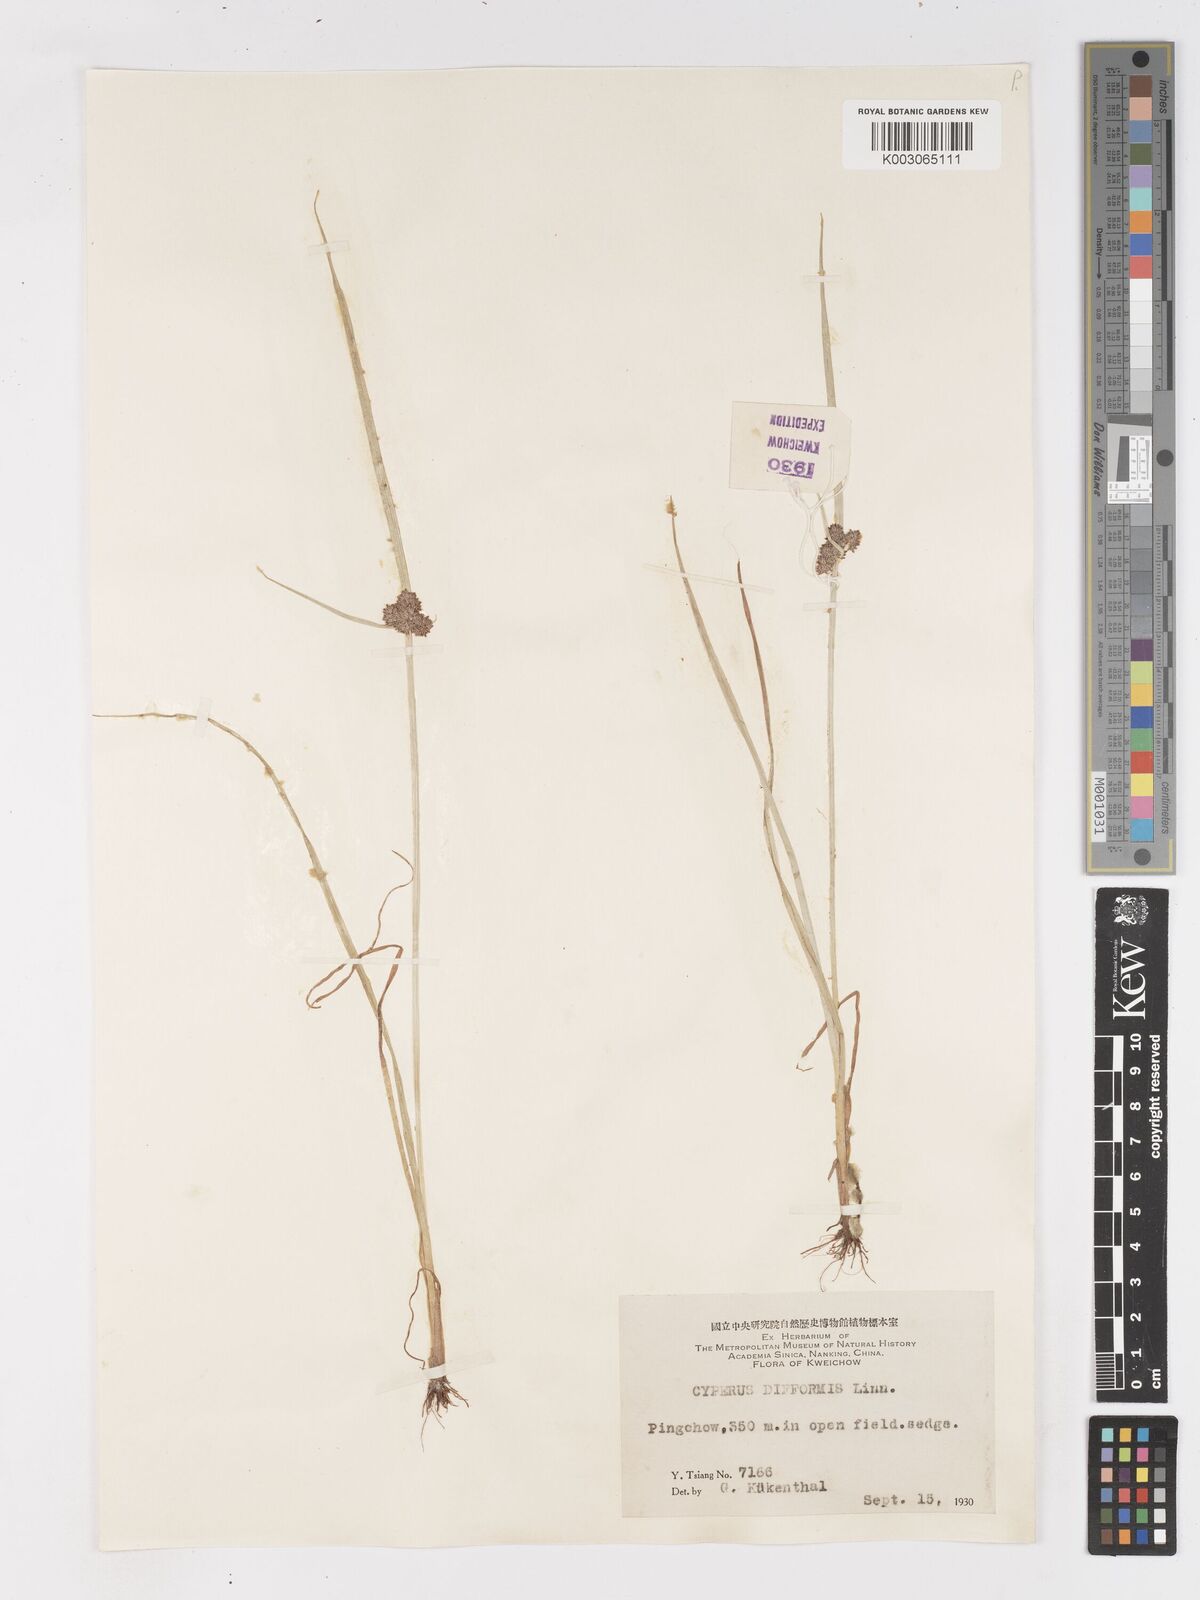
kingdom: Plantae
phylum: Tracheophyta
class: Liliopsida
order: Poales
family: Cyperaceae
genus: Cyperus
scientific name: Cyperus difformis
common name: Variable flatsedge
